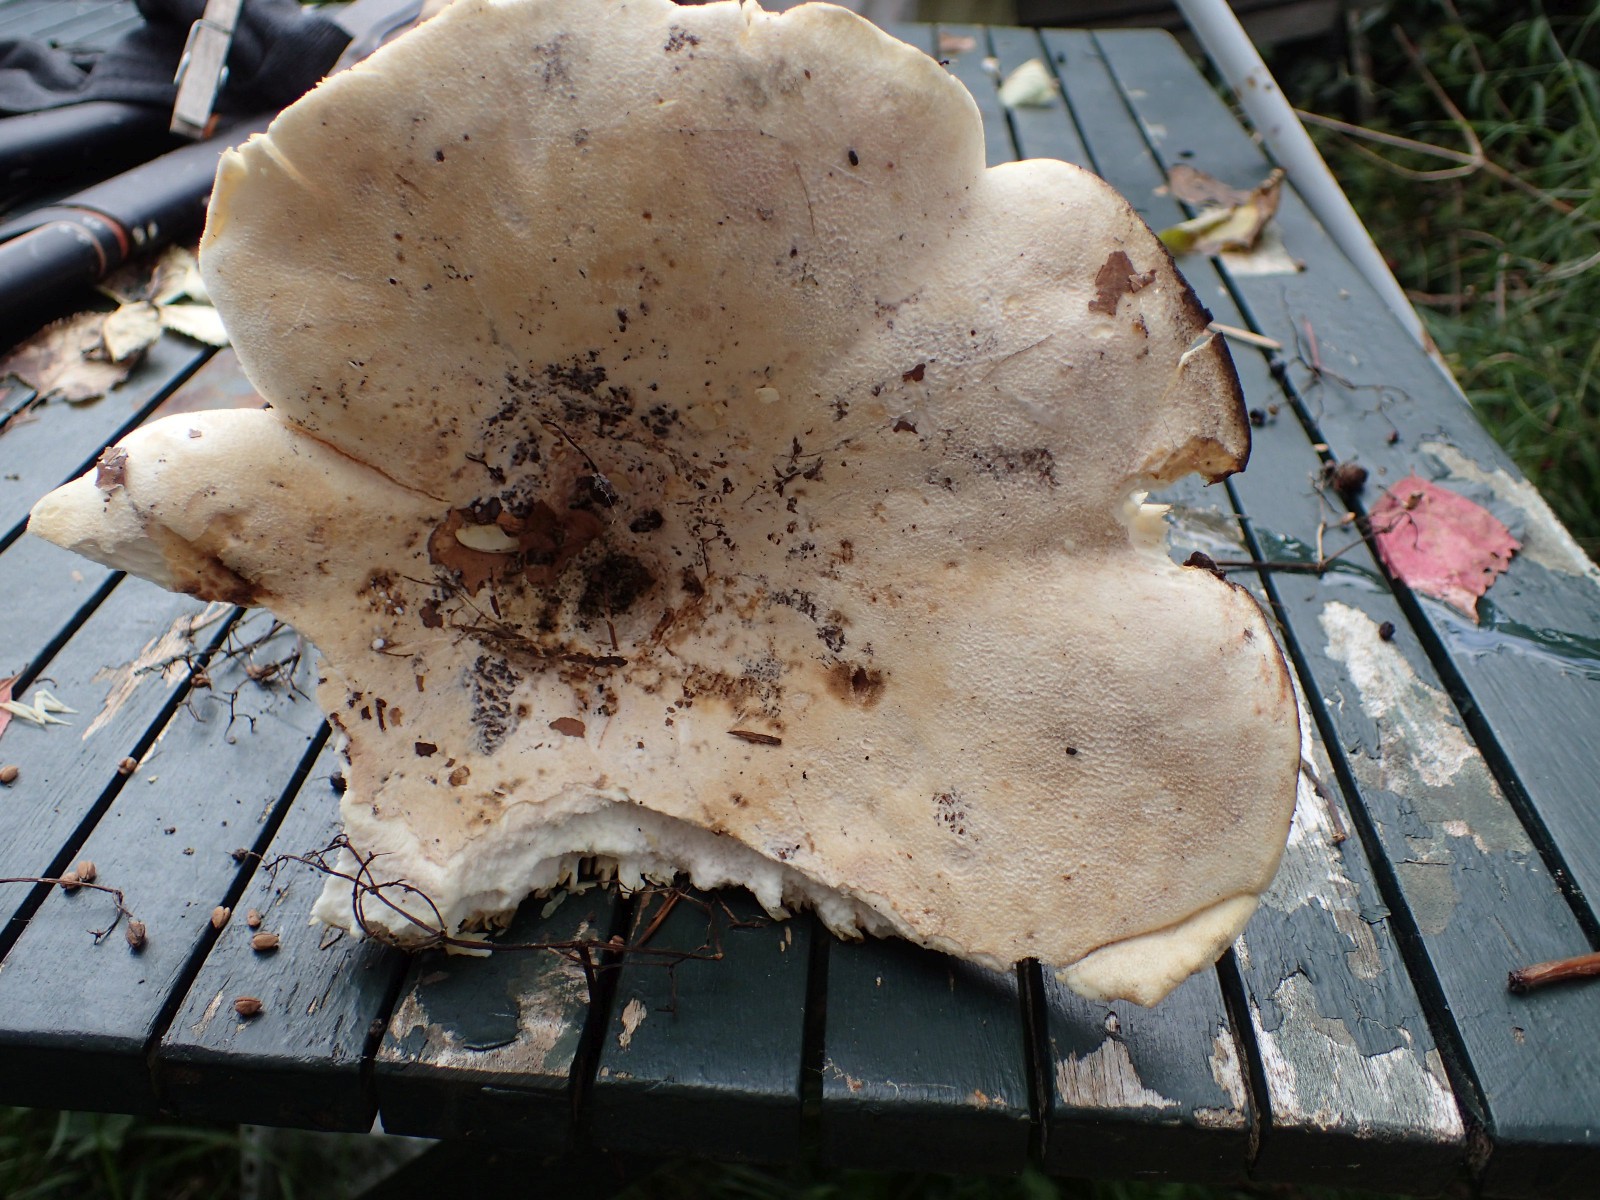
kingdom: Fungi
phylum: Basidiomycota
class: Agaricomycetes
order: Russulales
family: Russulaceae
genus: Lactifluus
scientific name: Lactifluus vellereus
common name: hvidfiltet mælkehat
